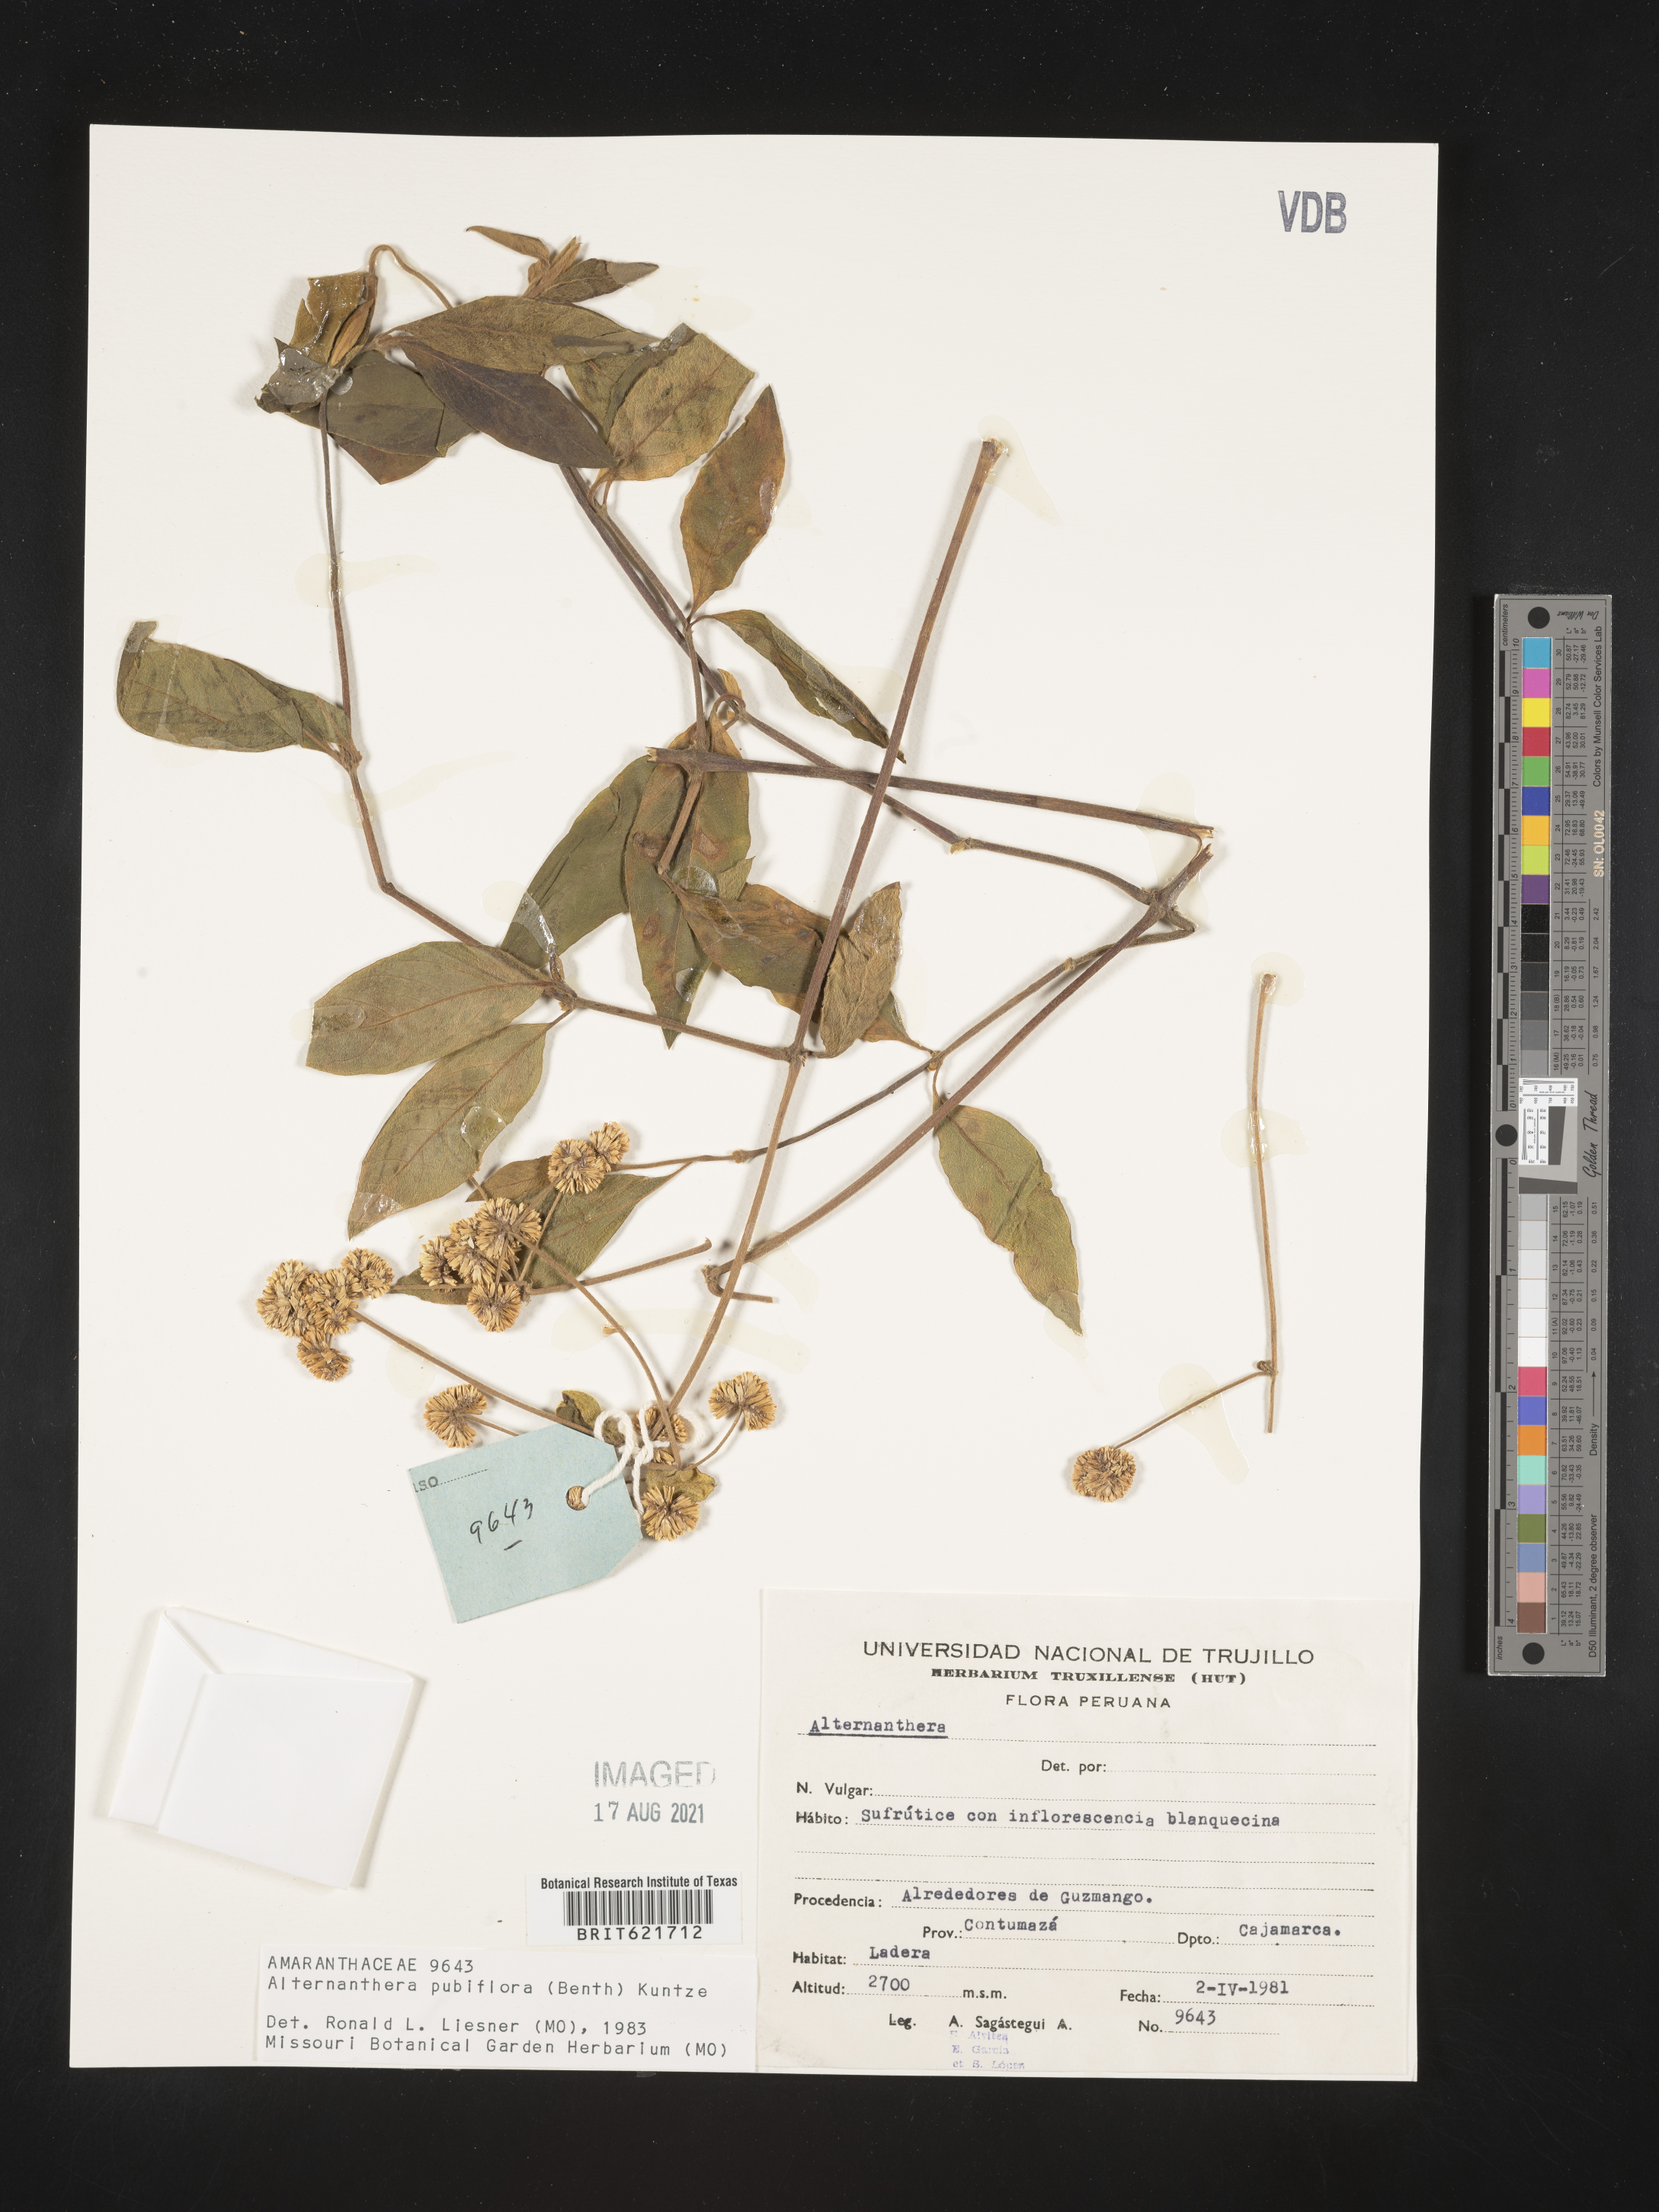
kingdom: Plantae
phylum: Tracheophyta
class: Magnoliopsida
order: Caryophyllales
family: Amaranthaceae
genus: Alternanthera
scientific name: Alternanthera pubiflora
